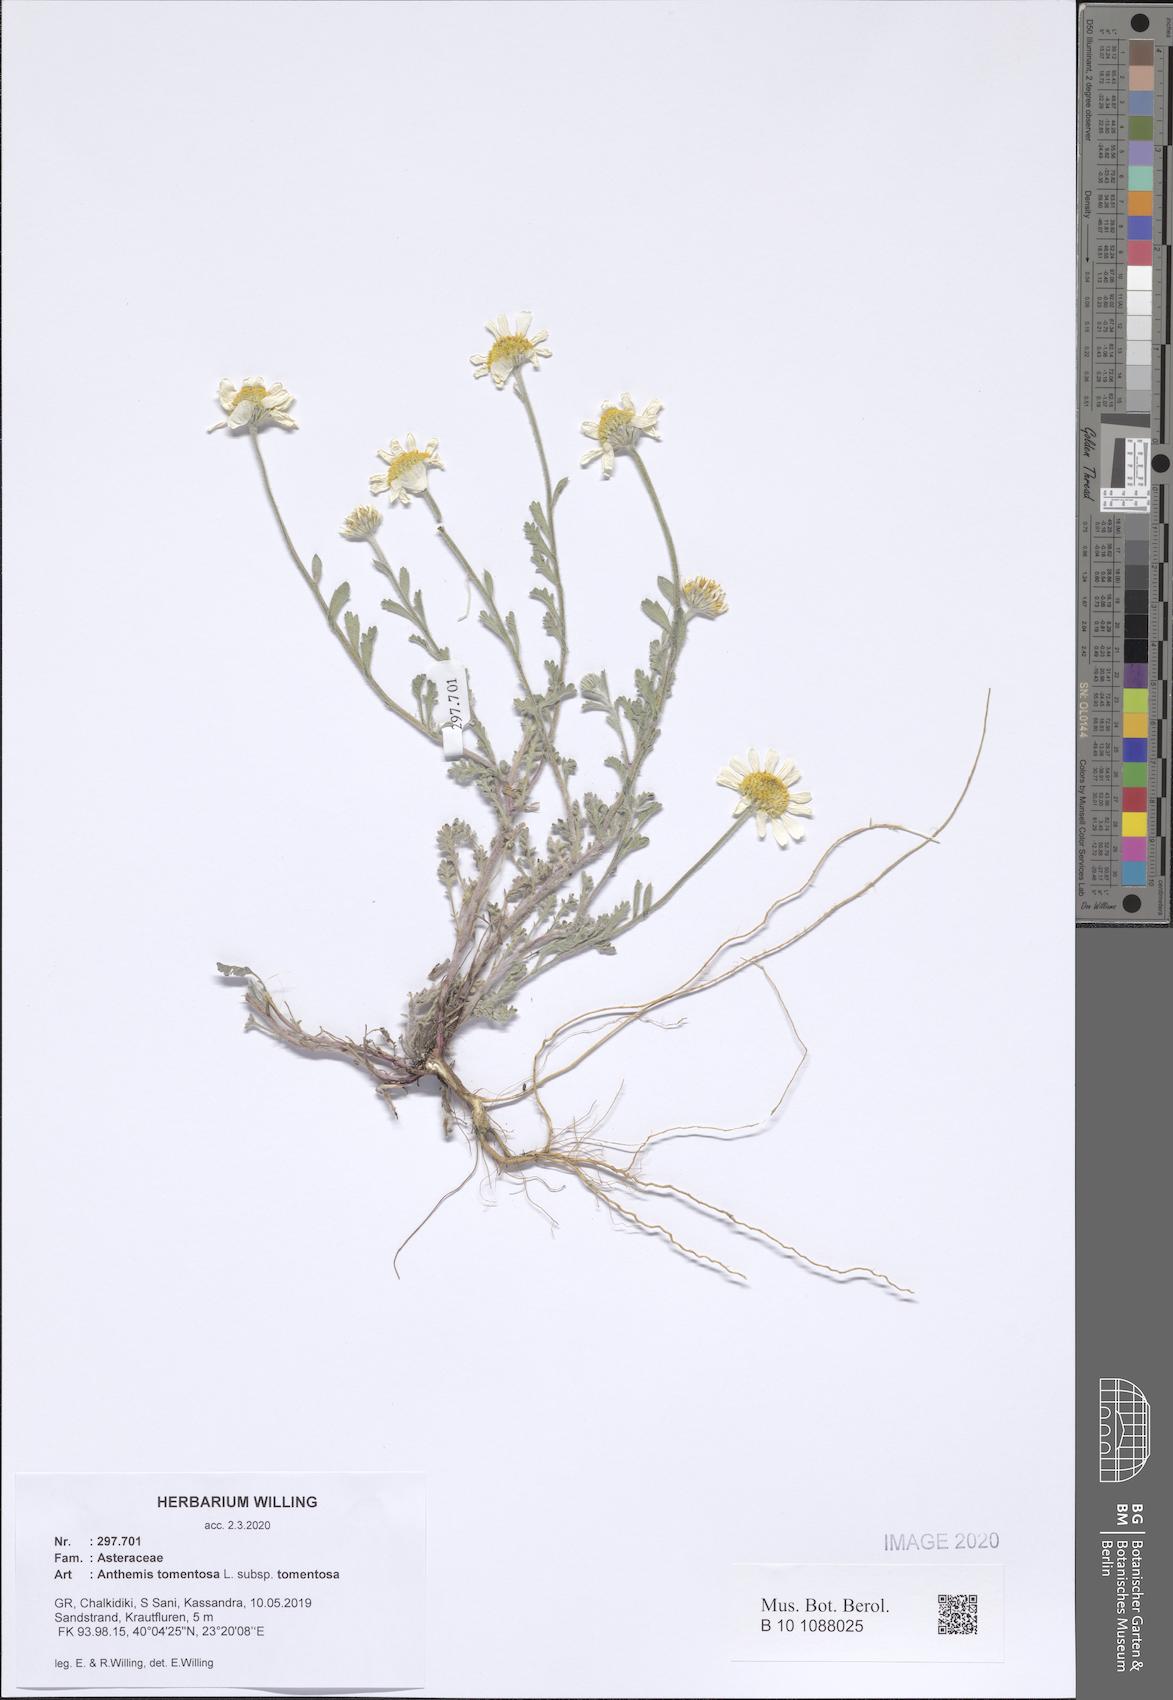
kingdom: Plantae
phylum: Tracheophyta
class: Magnoliopsida
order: Asterales
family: Asteraceae
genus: Anthemis
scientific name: Anthemis tomentosa
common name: Woolly chamomile
